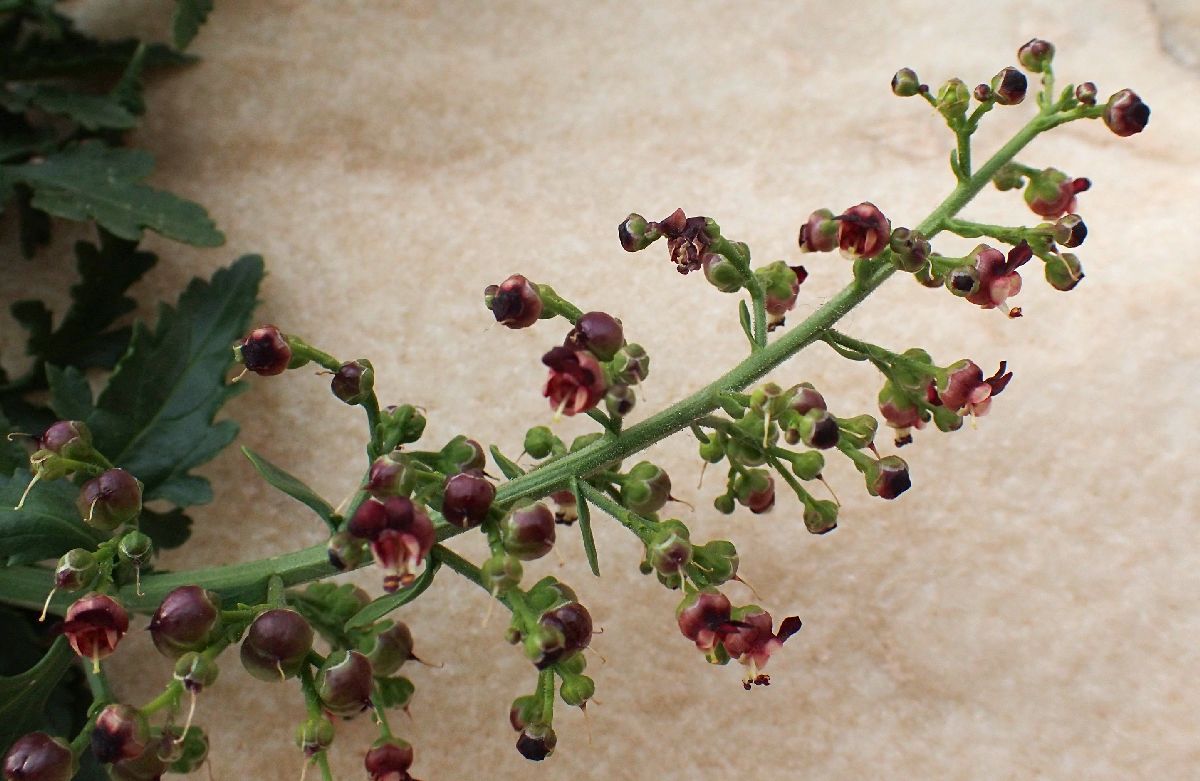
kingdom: Plantae
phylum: Tracheophyta
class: Magnoliopsida
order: Lamiales
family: Scrophulariaceae
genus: Scrophularia
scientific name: Scrophularia heterophylla
